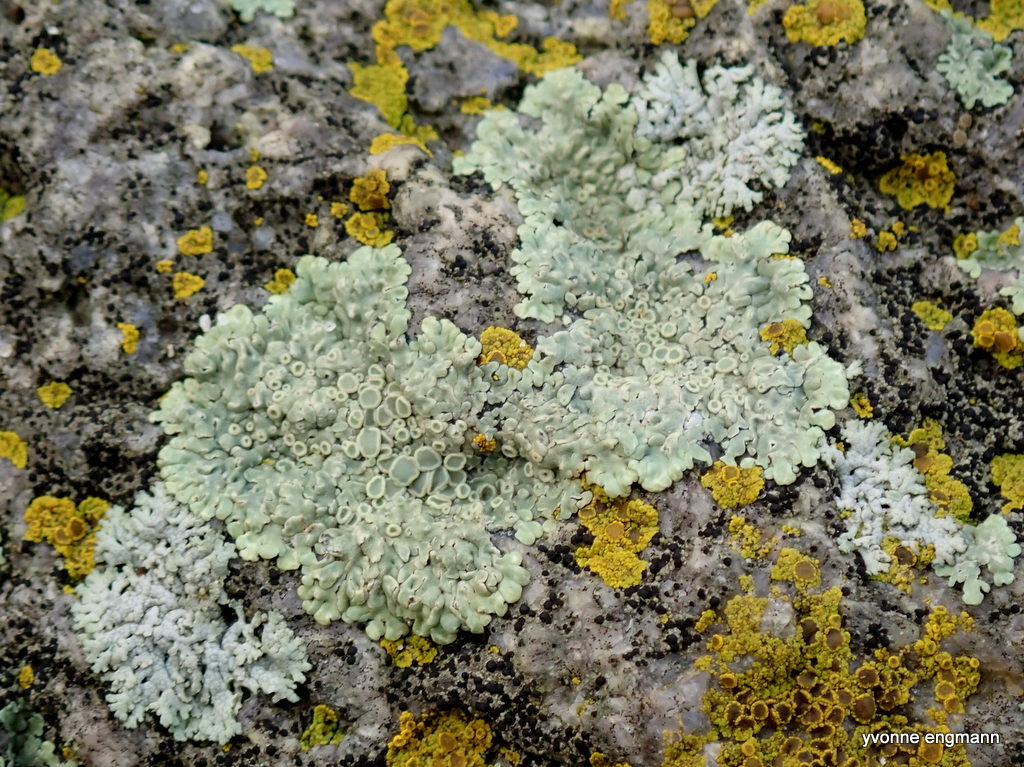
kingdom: Fungi
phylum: Ascomycota
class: Lecanoromycetes
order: Lecanorales
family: Lecanoraceae
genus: Protoparmeliopsis
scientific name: Protoparmeliopsis muralis
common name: randfliget kantskivelav
